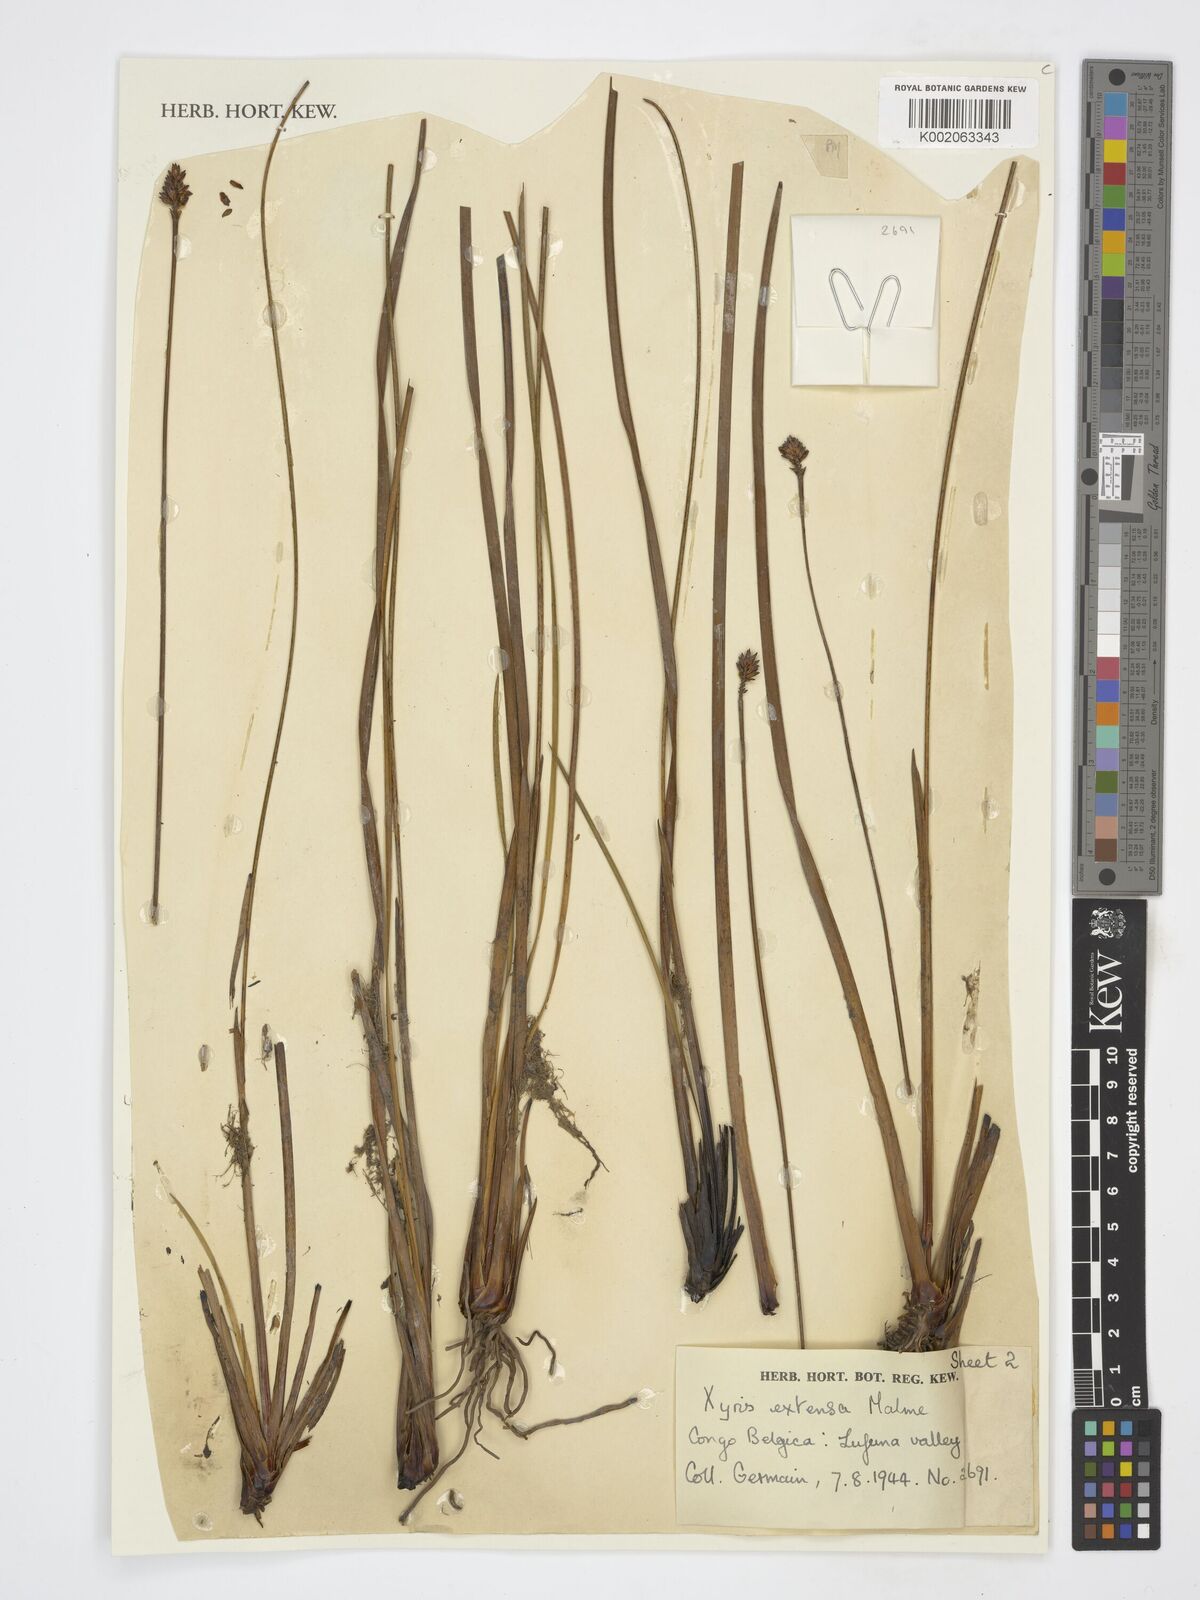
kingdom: Plantae
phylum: Tracheophyta
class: Liliopsida
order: Poales
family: Xyridaceae
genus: Xyris
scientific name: Xyris congensis
